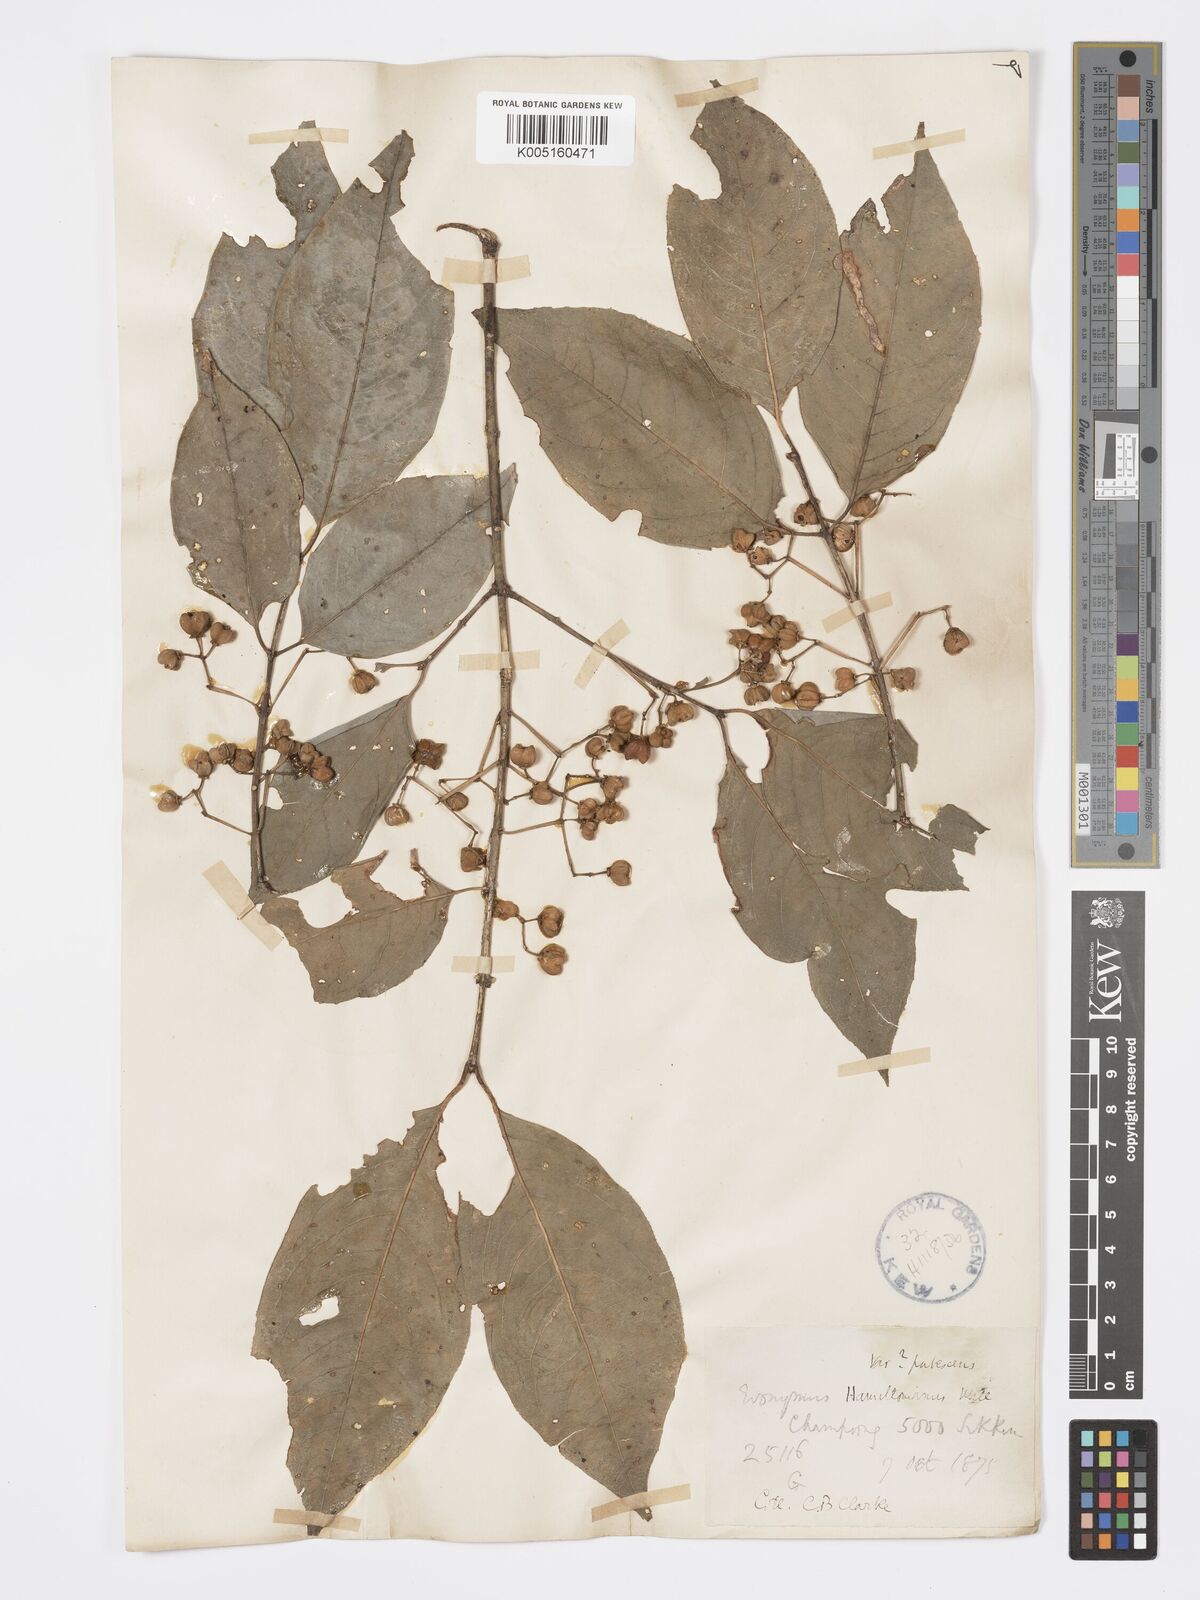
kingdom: Plantae
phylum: Tracheophyta
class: Magnoliopsida
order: Celastrales
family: Celastraceae
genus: Euonymus
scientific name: Euonymus
